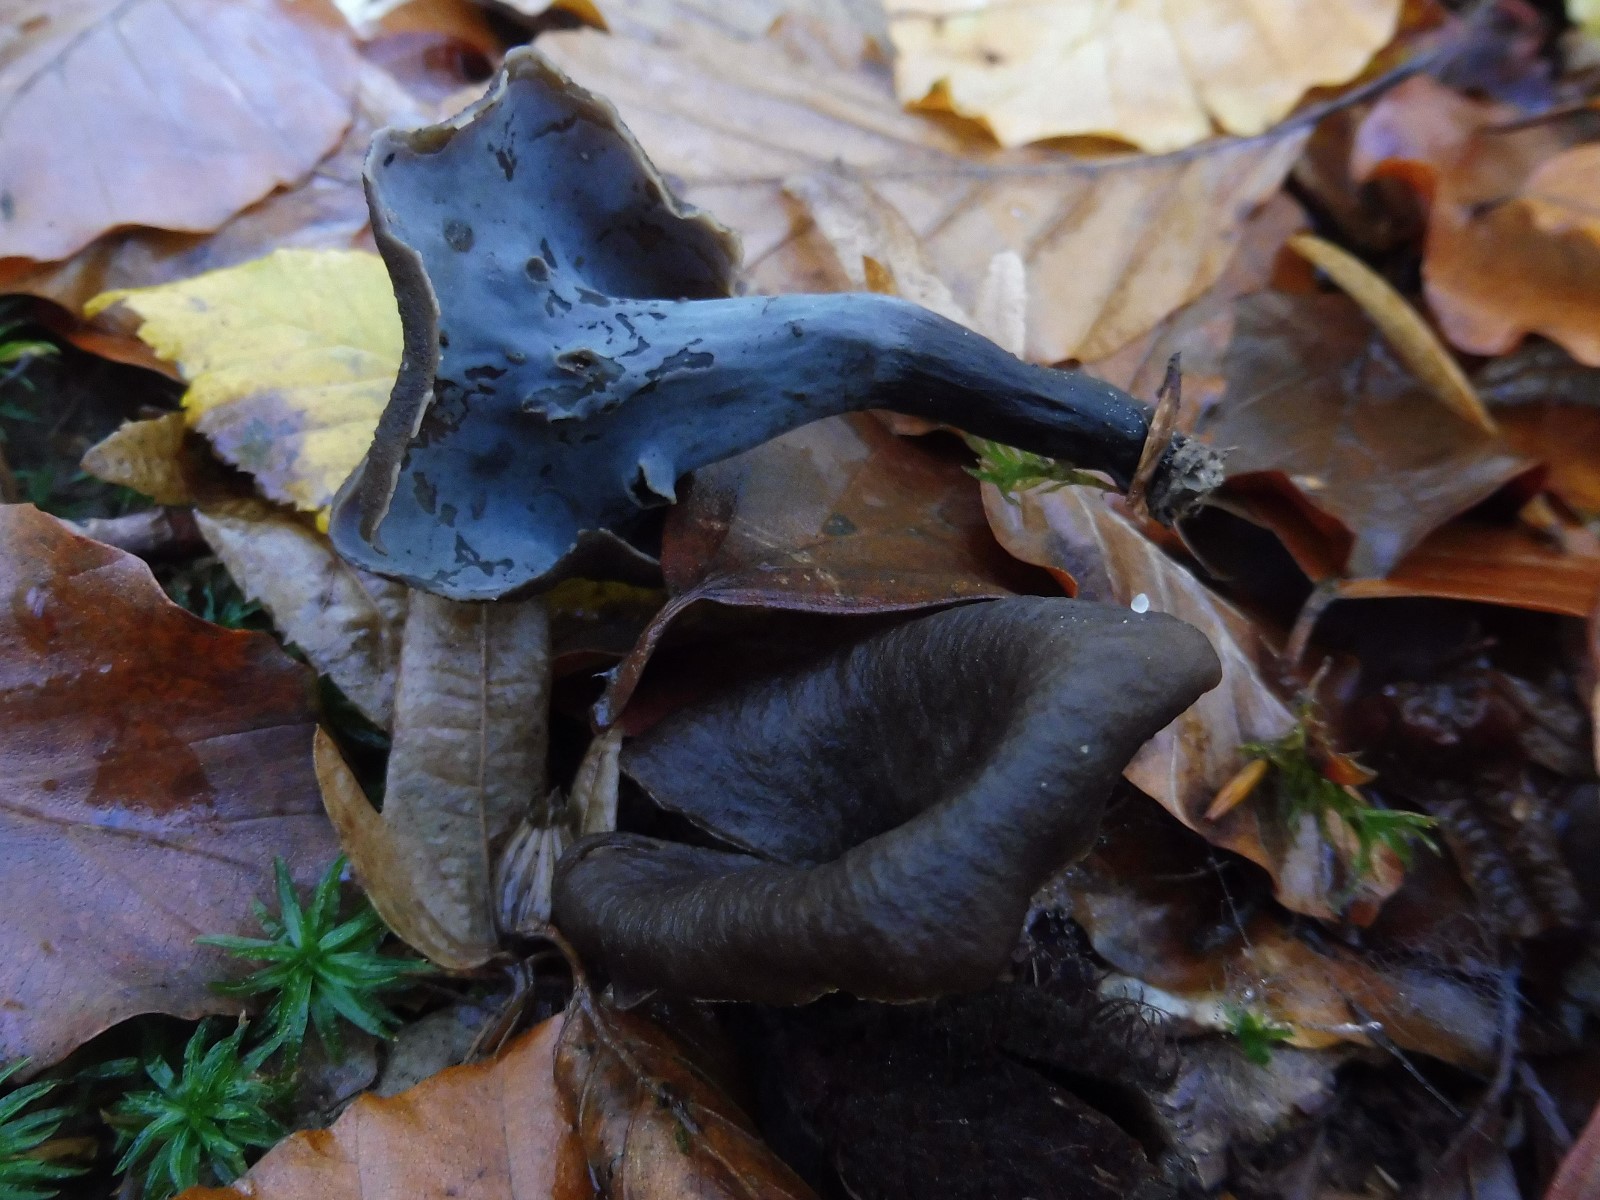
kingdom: Fungi
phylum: Basidiomycota
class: Agaricomycetes
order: Cantharellales
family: Hydnaceae
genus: Craterellus
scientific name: Craterellus cornucopioides
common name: trompetsvamp
